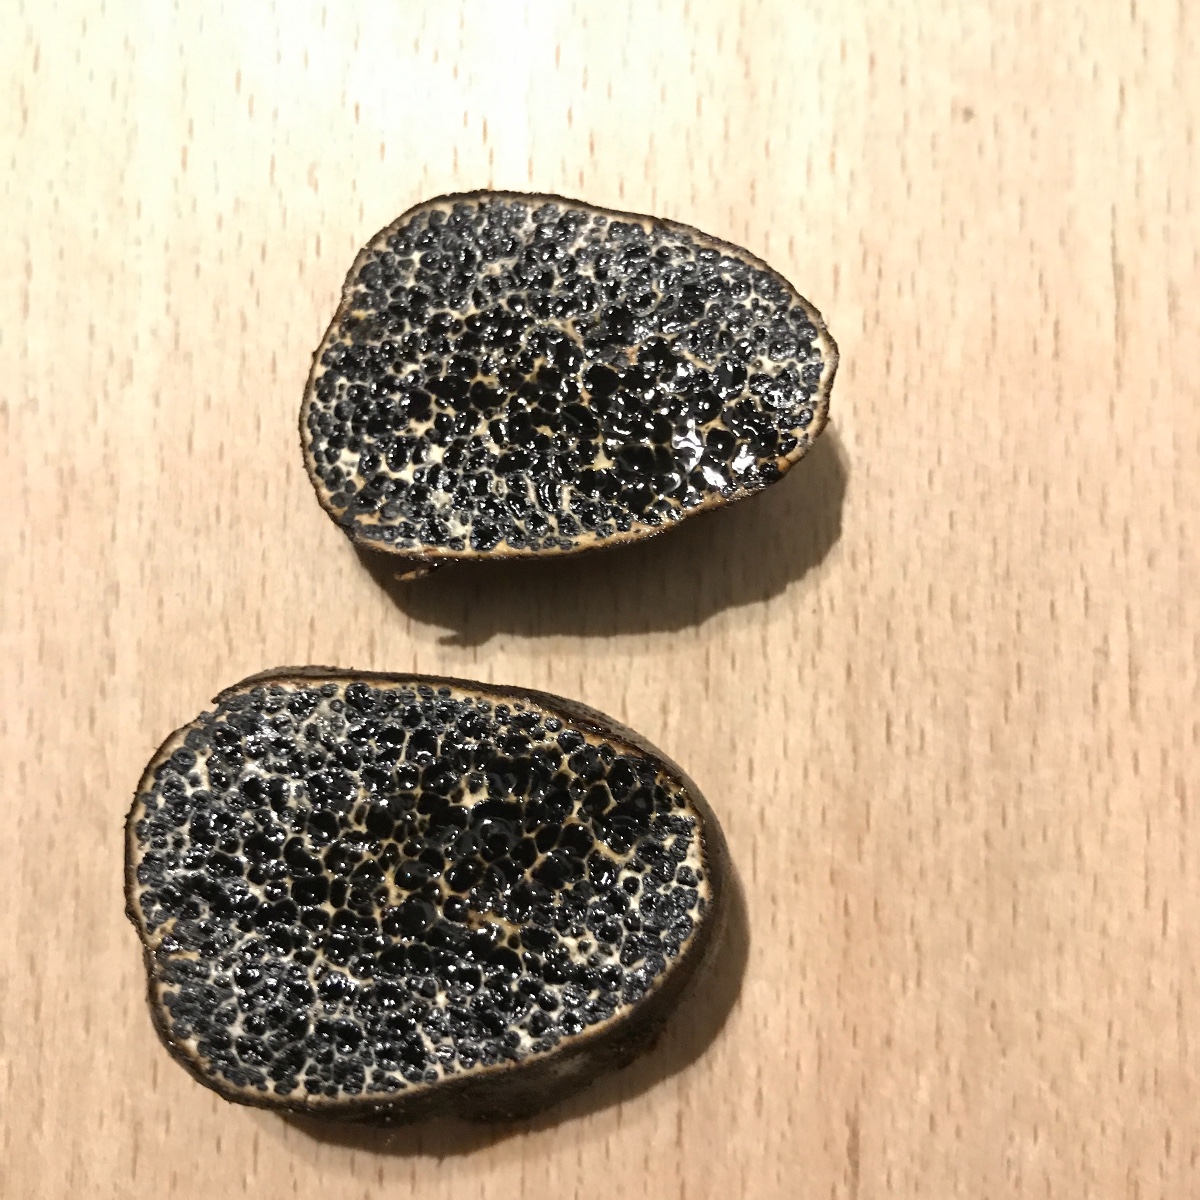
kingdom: Fungi
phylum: Basidiomycota
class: Agaricomycetes
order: Boletales
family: Paxillaceae
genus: Melanogaster
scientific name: Melanogaster ambiguus
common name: lille slimtrøffel
